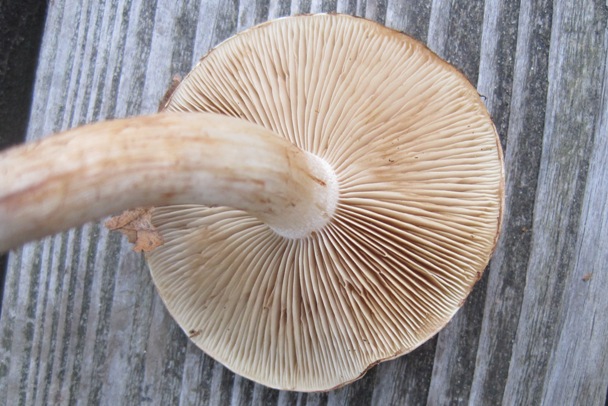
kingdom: Fungi
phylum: Basidiomycota
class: Agaricomycetes
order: Agaricales
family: Strophariaceae
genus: Pholiota
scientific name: Pholiota lenta
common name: løv-skælhat
